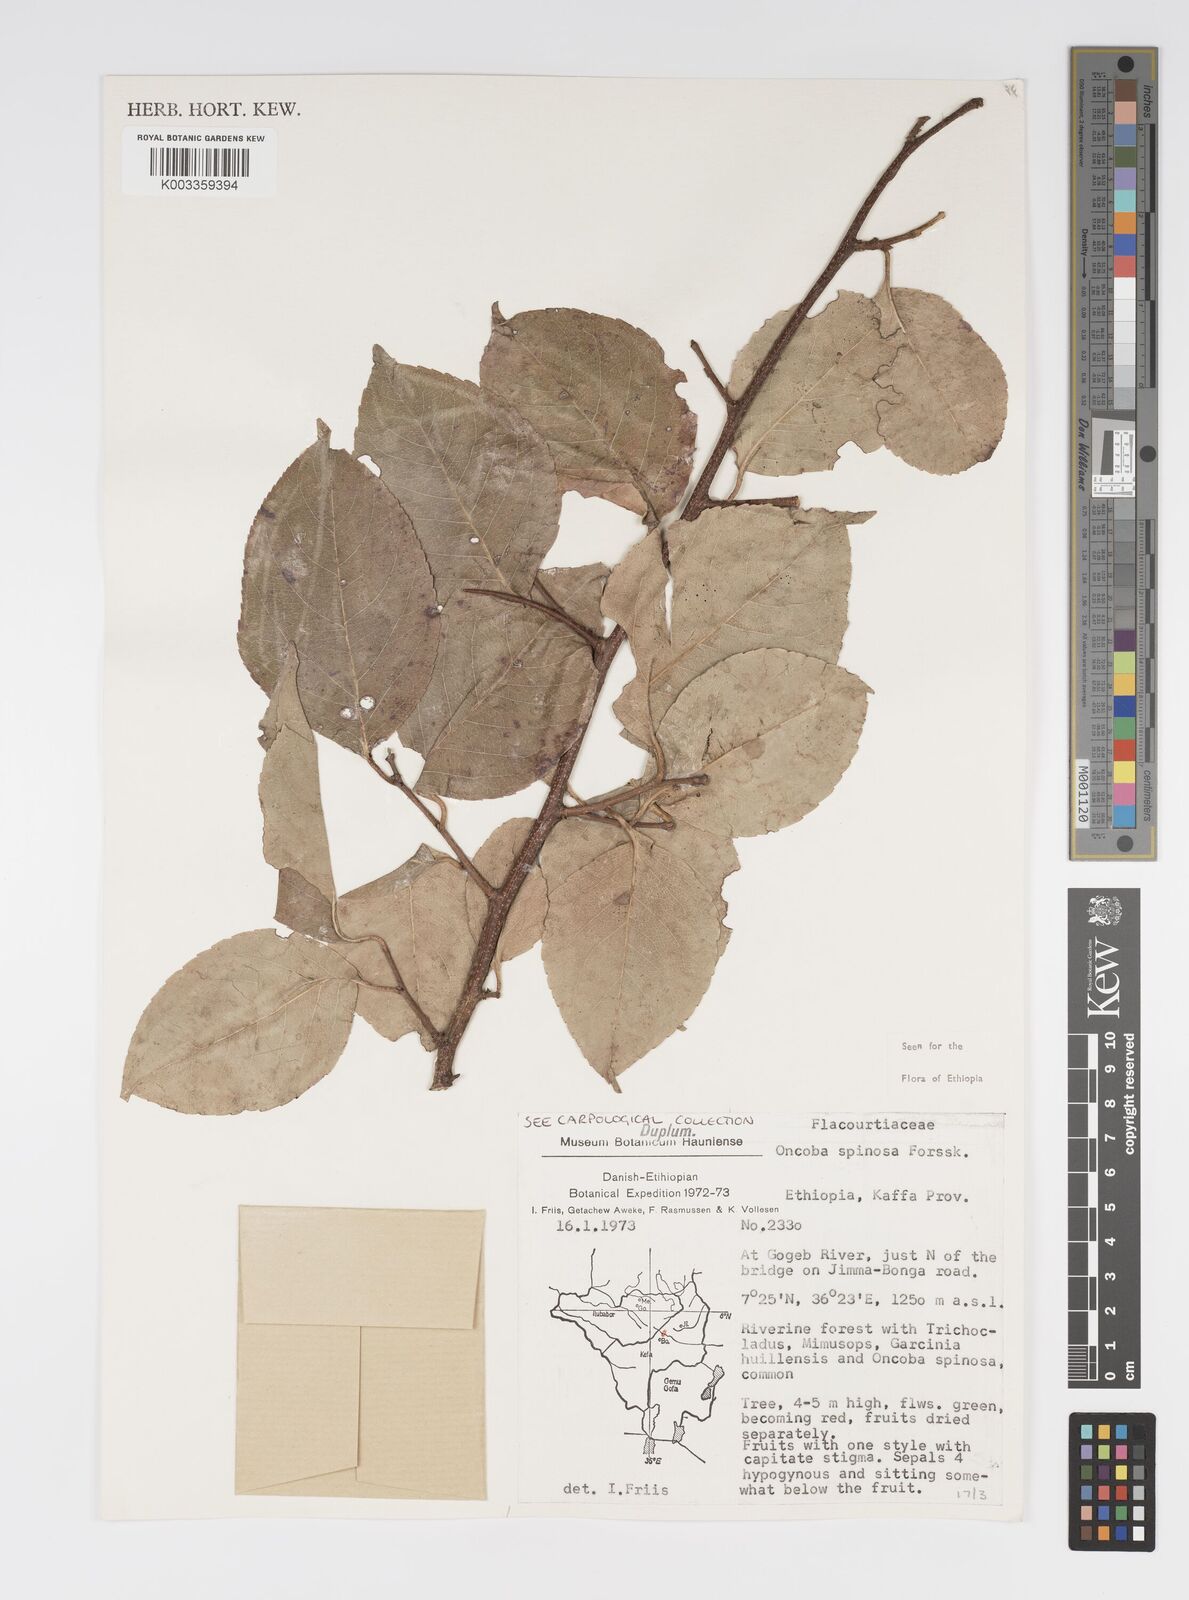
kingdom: Plantae
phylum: Tracheophyta
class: Magnoliopsida
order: Malpighiales
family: Salicaceae
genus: Oncoba
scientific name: Oncoba spinosa
